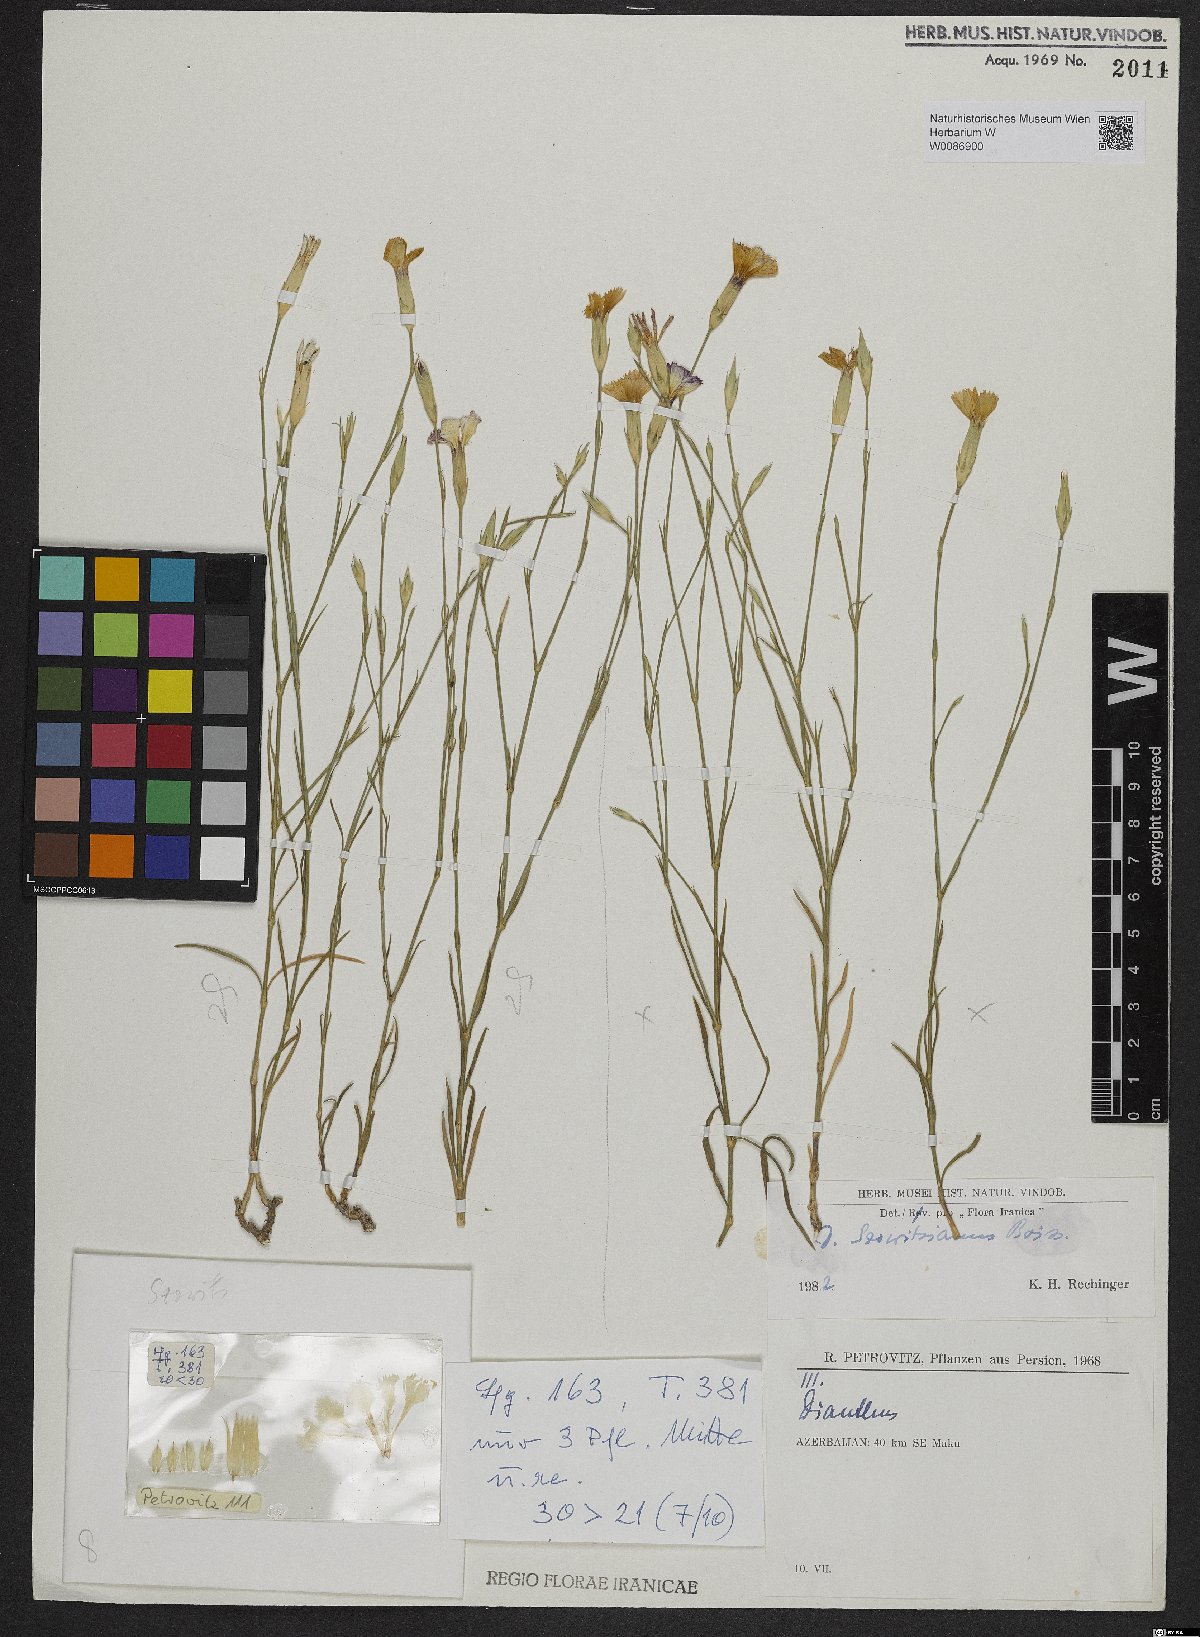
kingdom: Plantae
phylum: Tracheophyta
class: Magnoliopsida
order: Caryophyllales
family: Caryophyllaceae
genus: Dianthus
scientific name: Dianthus szowitsianus
